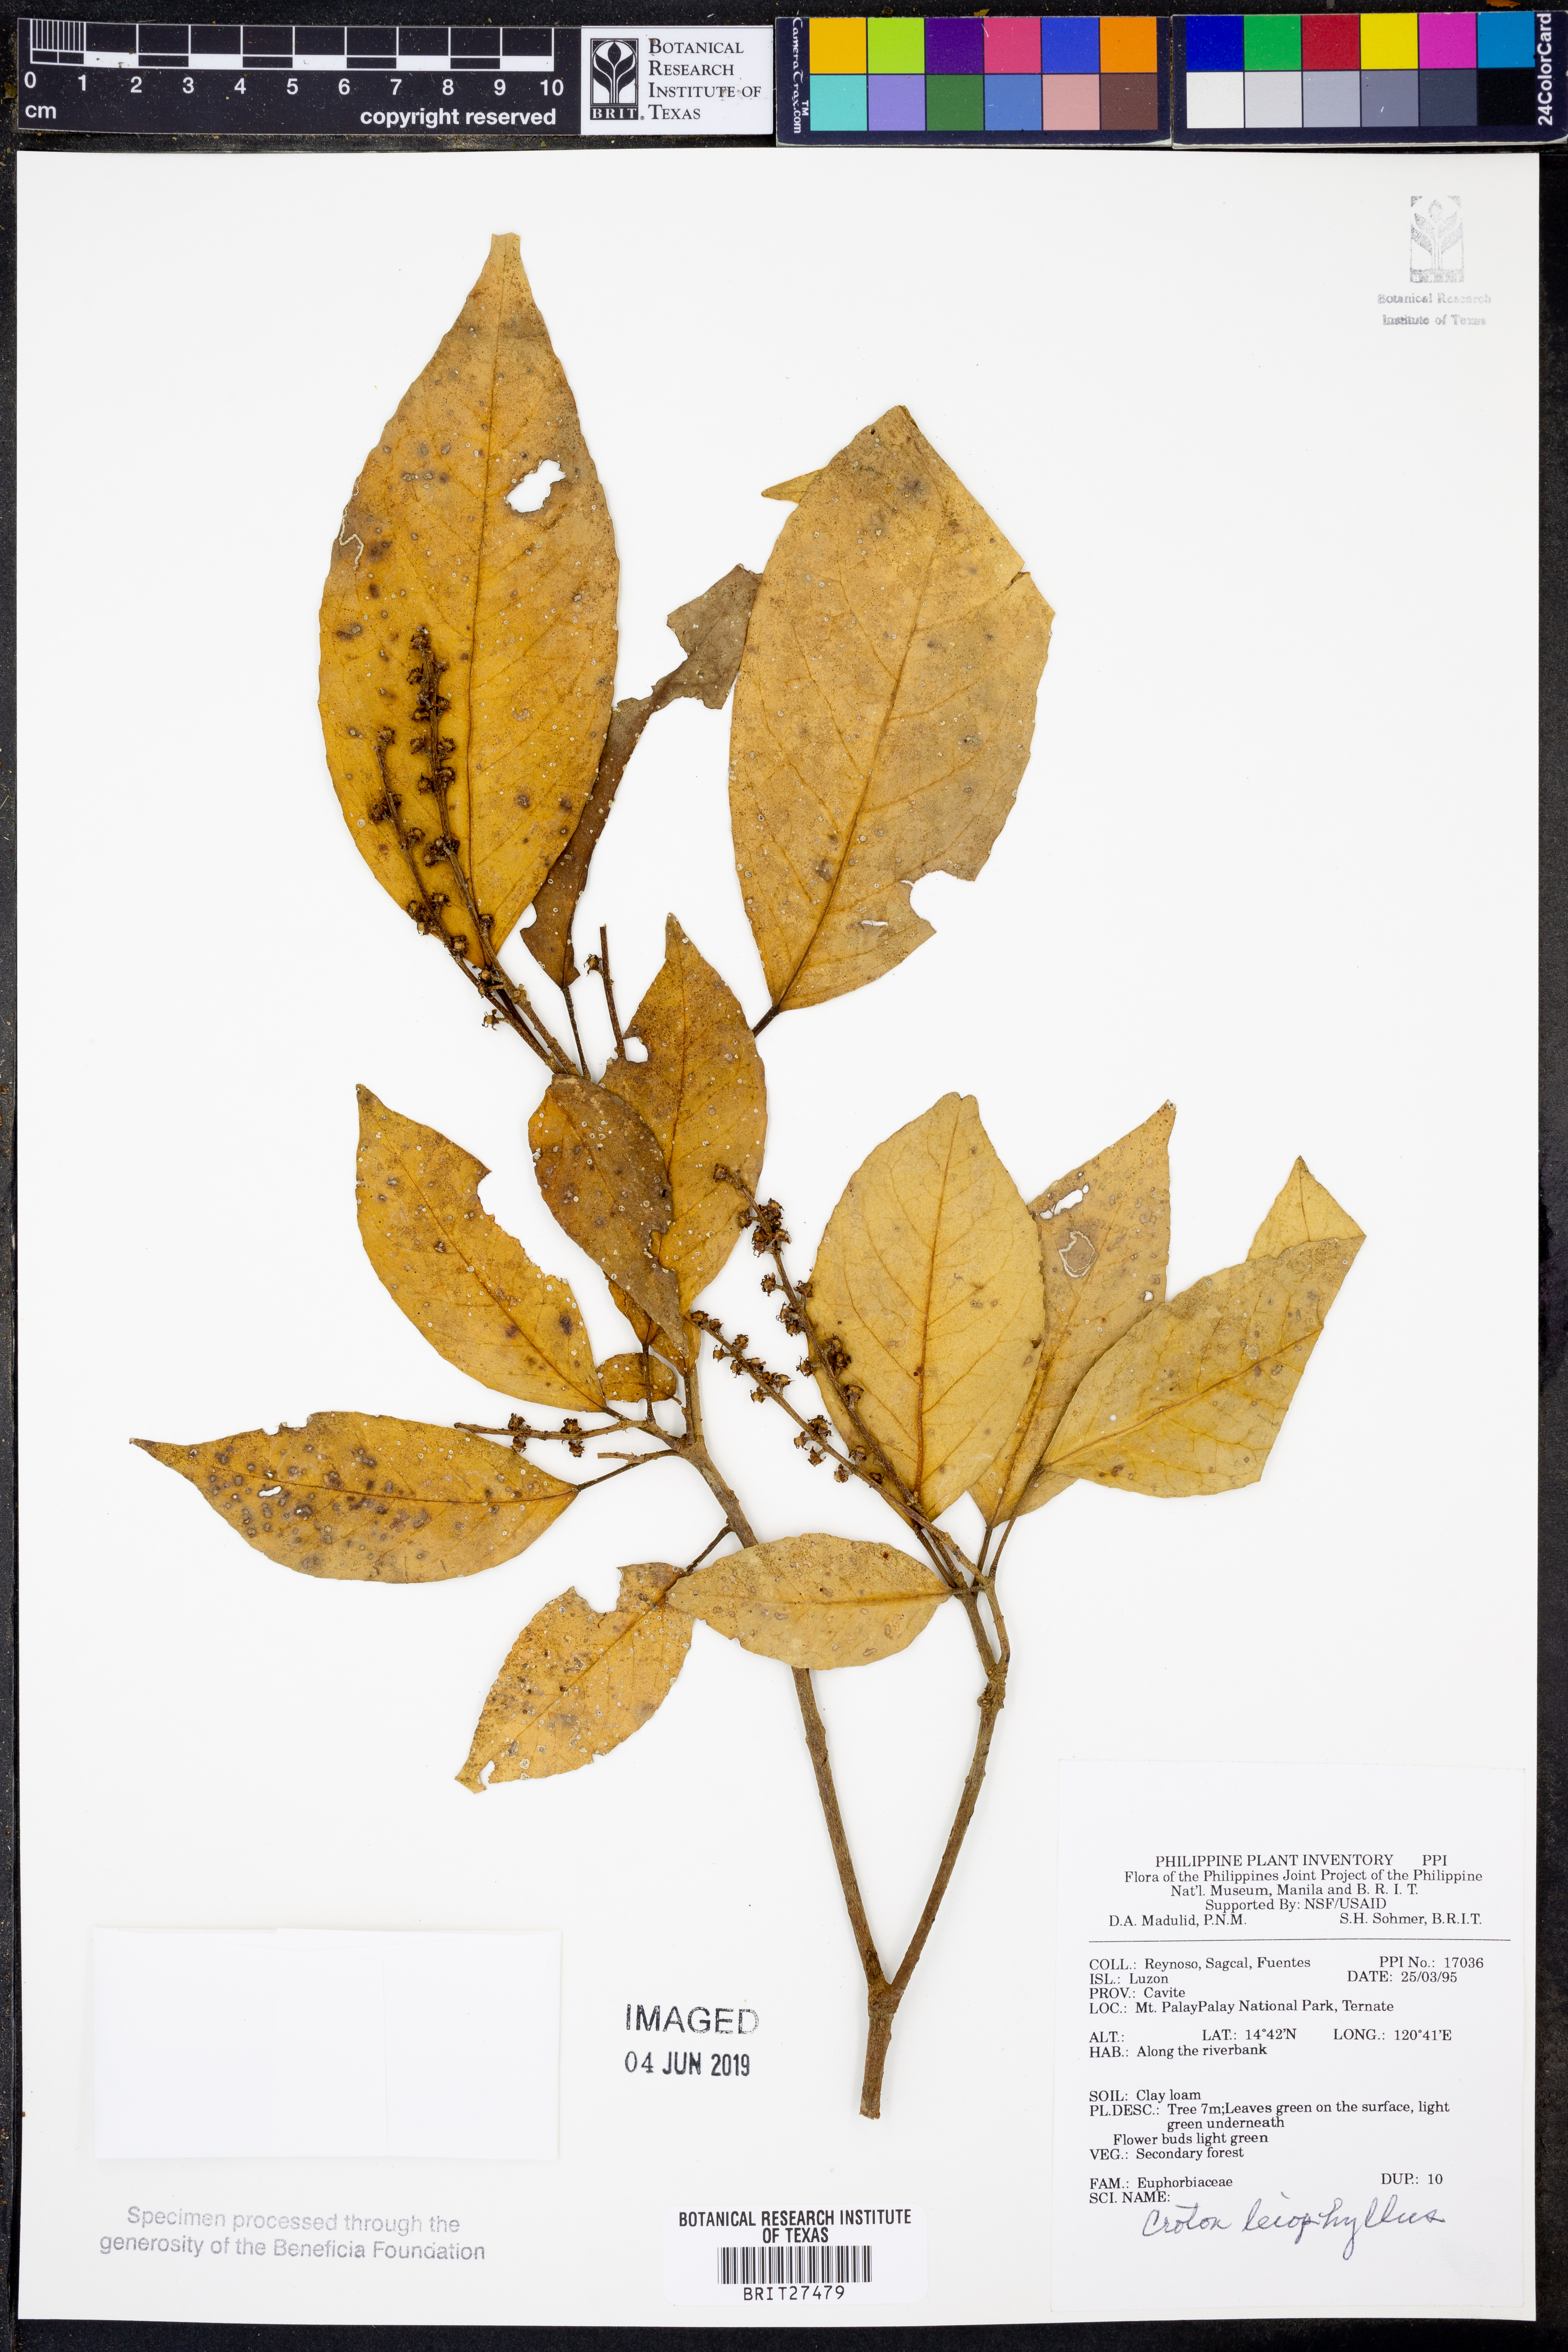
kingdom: Plantae
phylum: Tracheophyta
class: Magnoliopsida
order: Malpighiales
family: Euphorbiaceae
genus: Croton
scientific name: Croton leiophyllus
